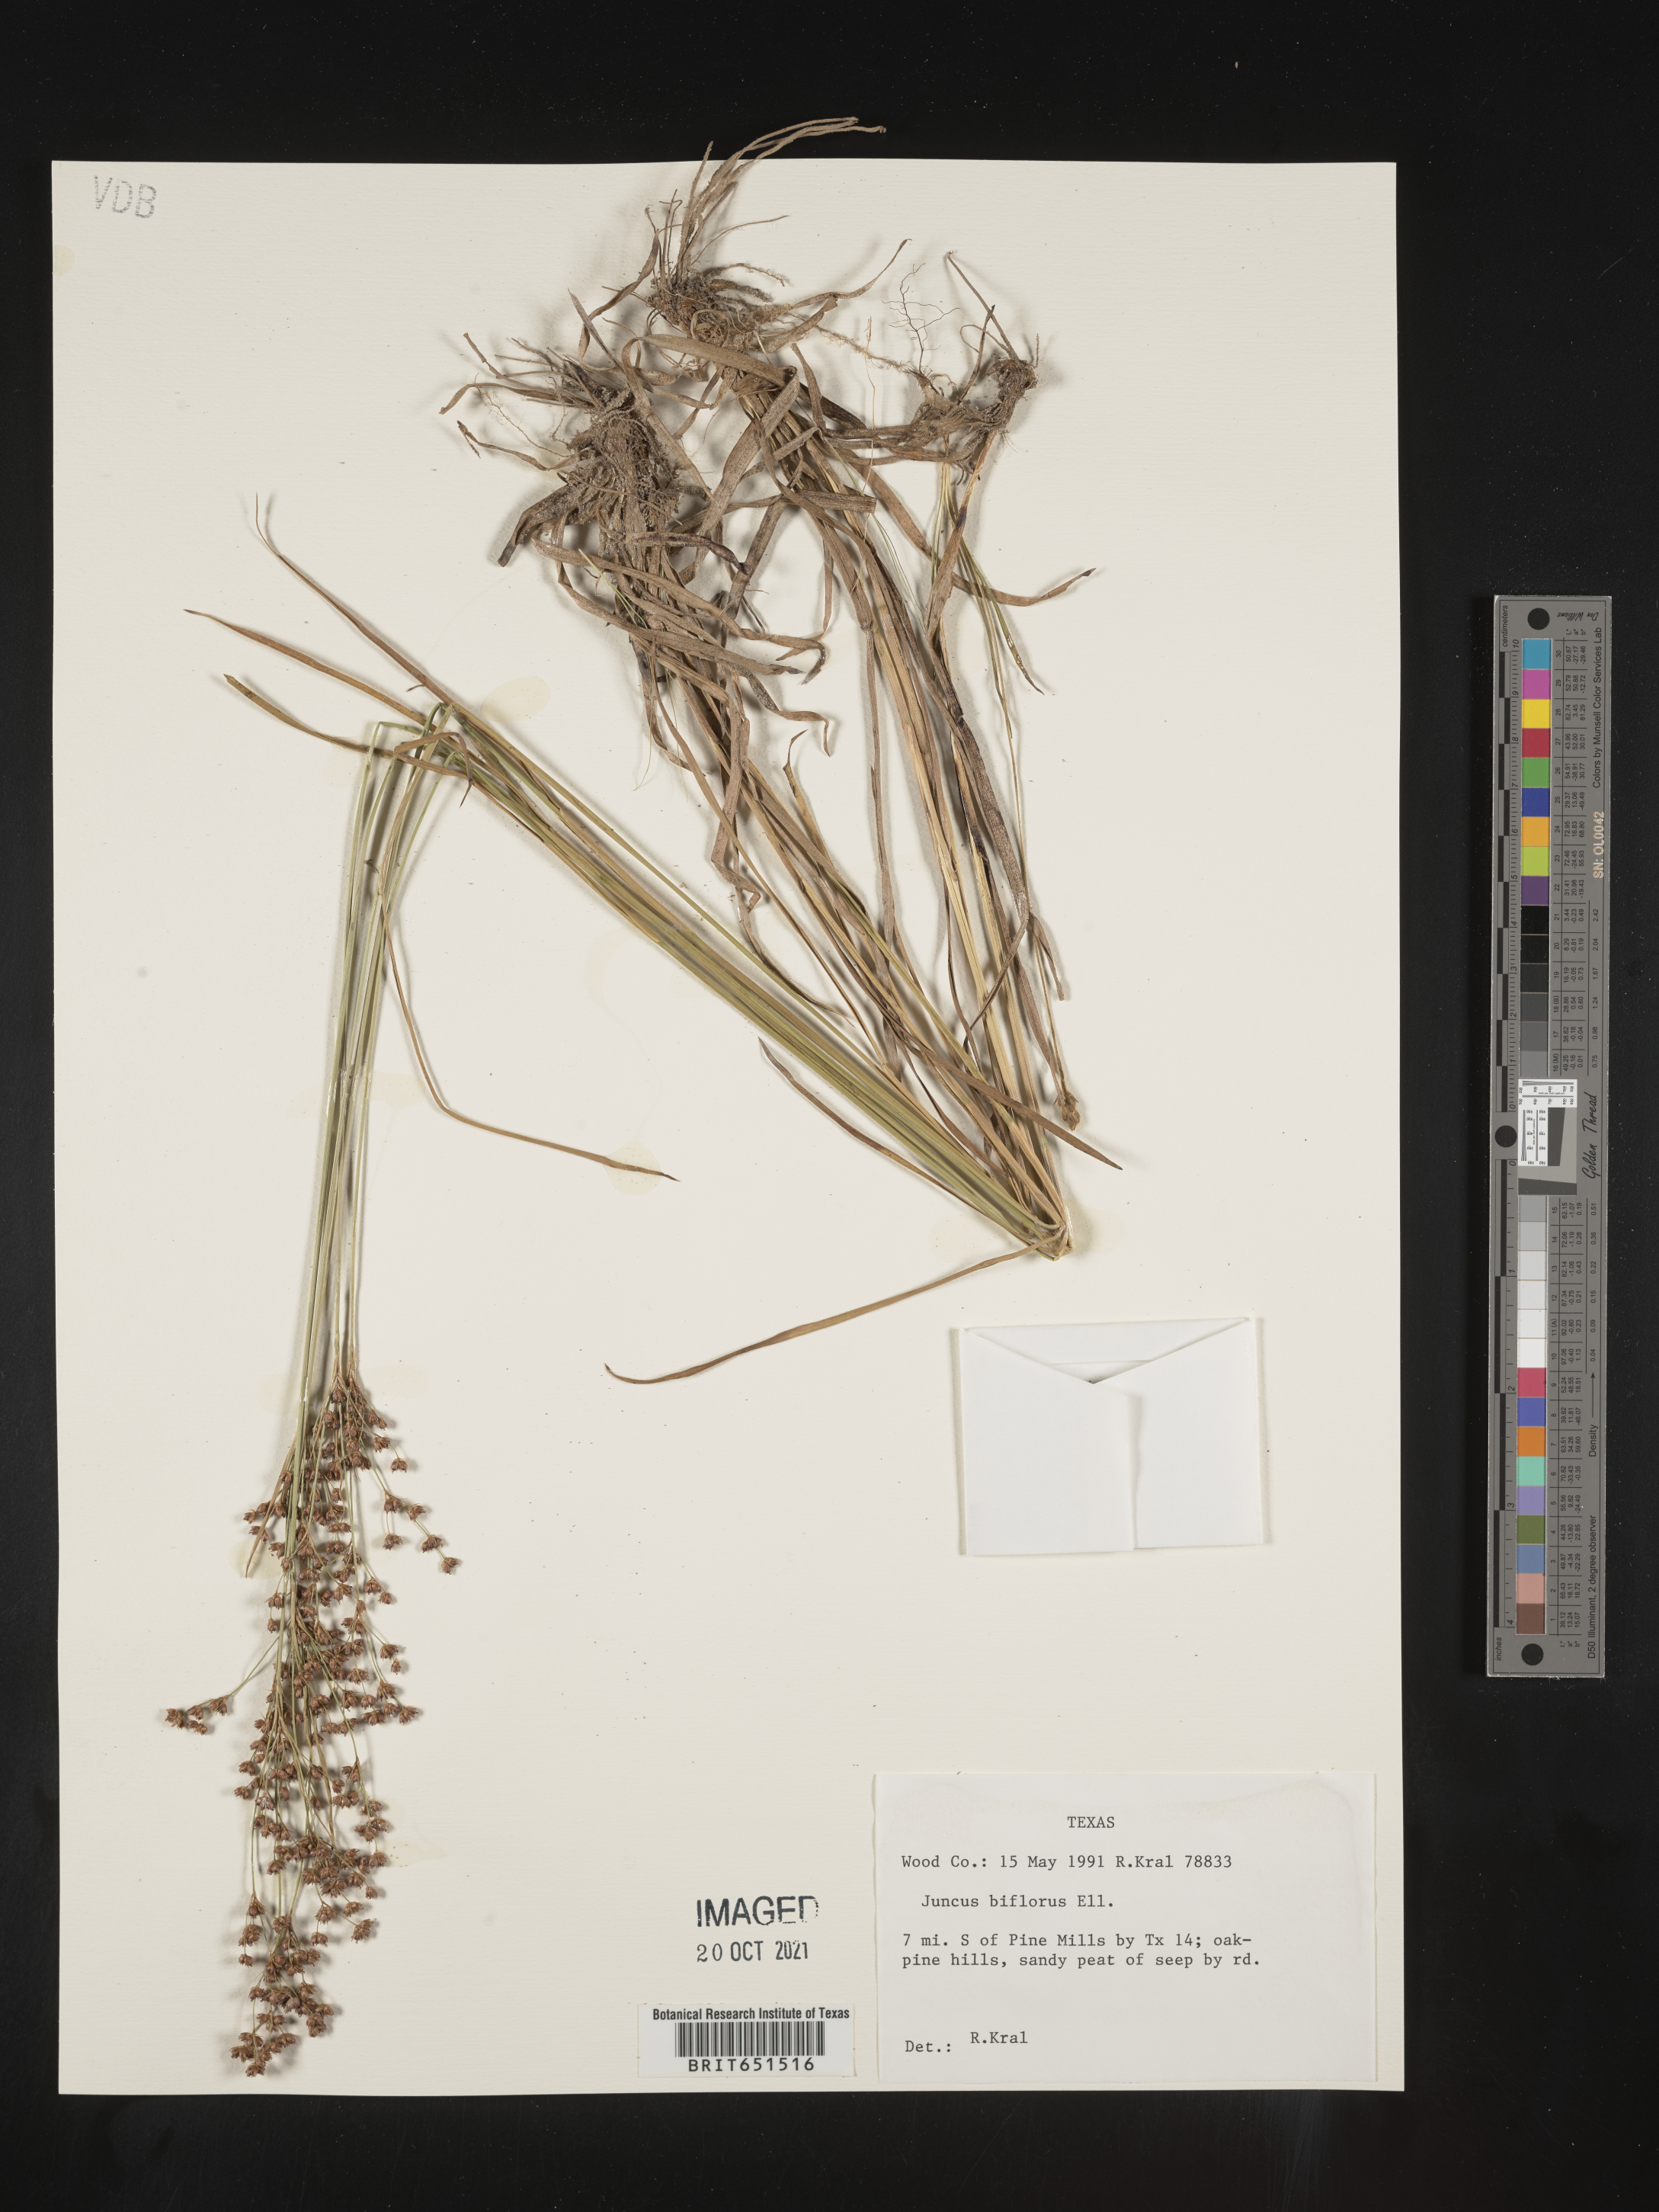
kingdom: Plantae
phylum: Tracheophyta
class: Liliopsida
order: Poales
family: Juncaceae
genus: Juncus
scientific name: Juncus biflorus
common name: Two-flowered rush
